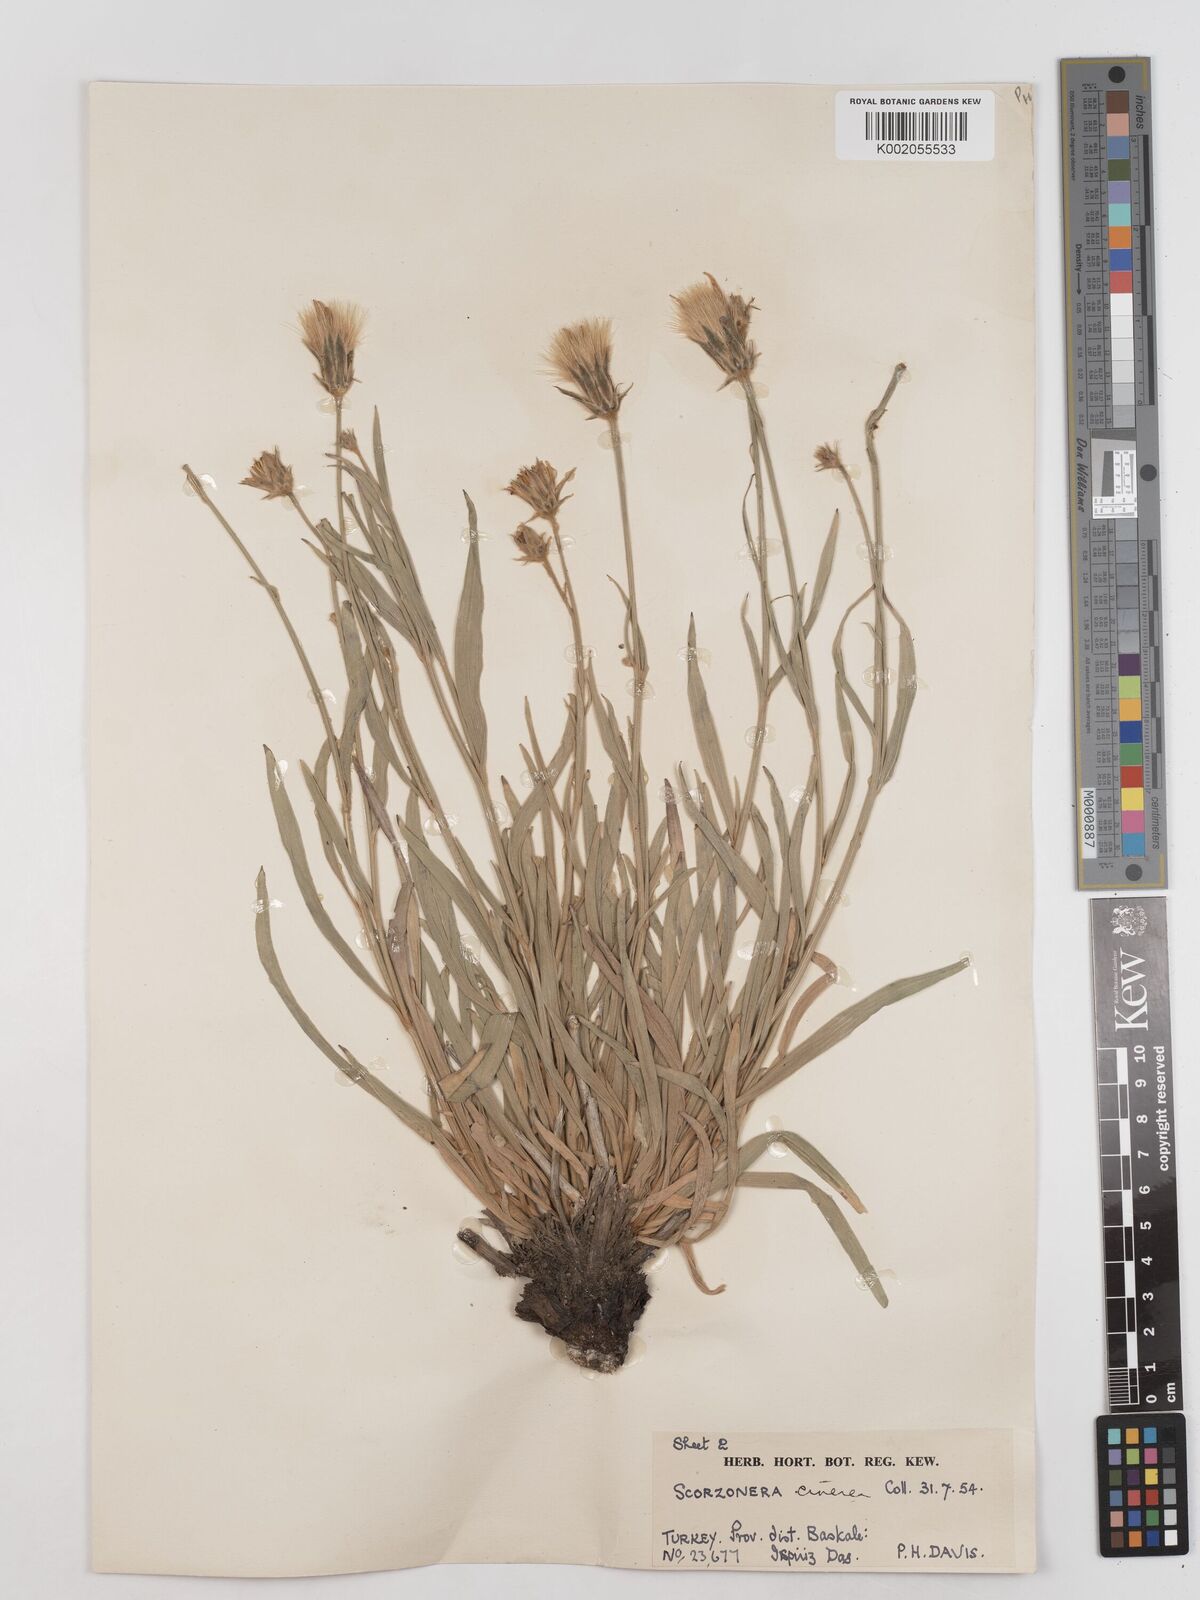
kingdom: Plantae
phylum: Tracheophyta
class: Magnoliopsida
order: Asterales
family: Asteraceae
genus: Cigdemia
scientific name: Cigdemia cinerea
